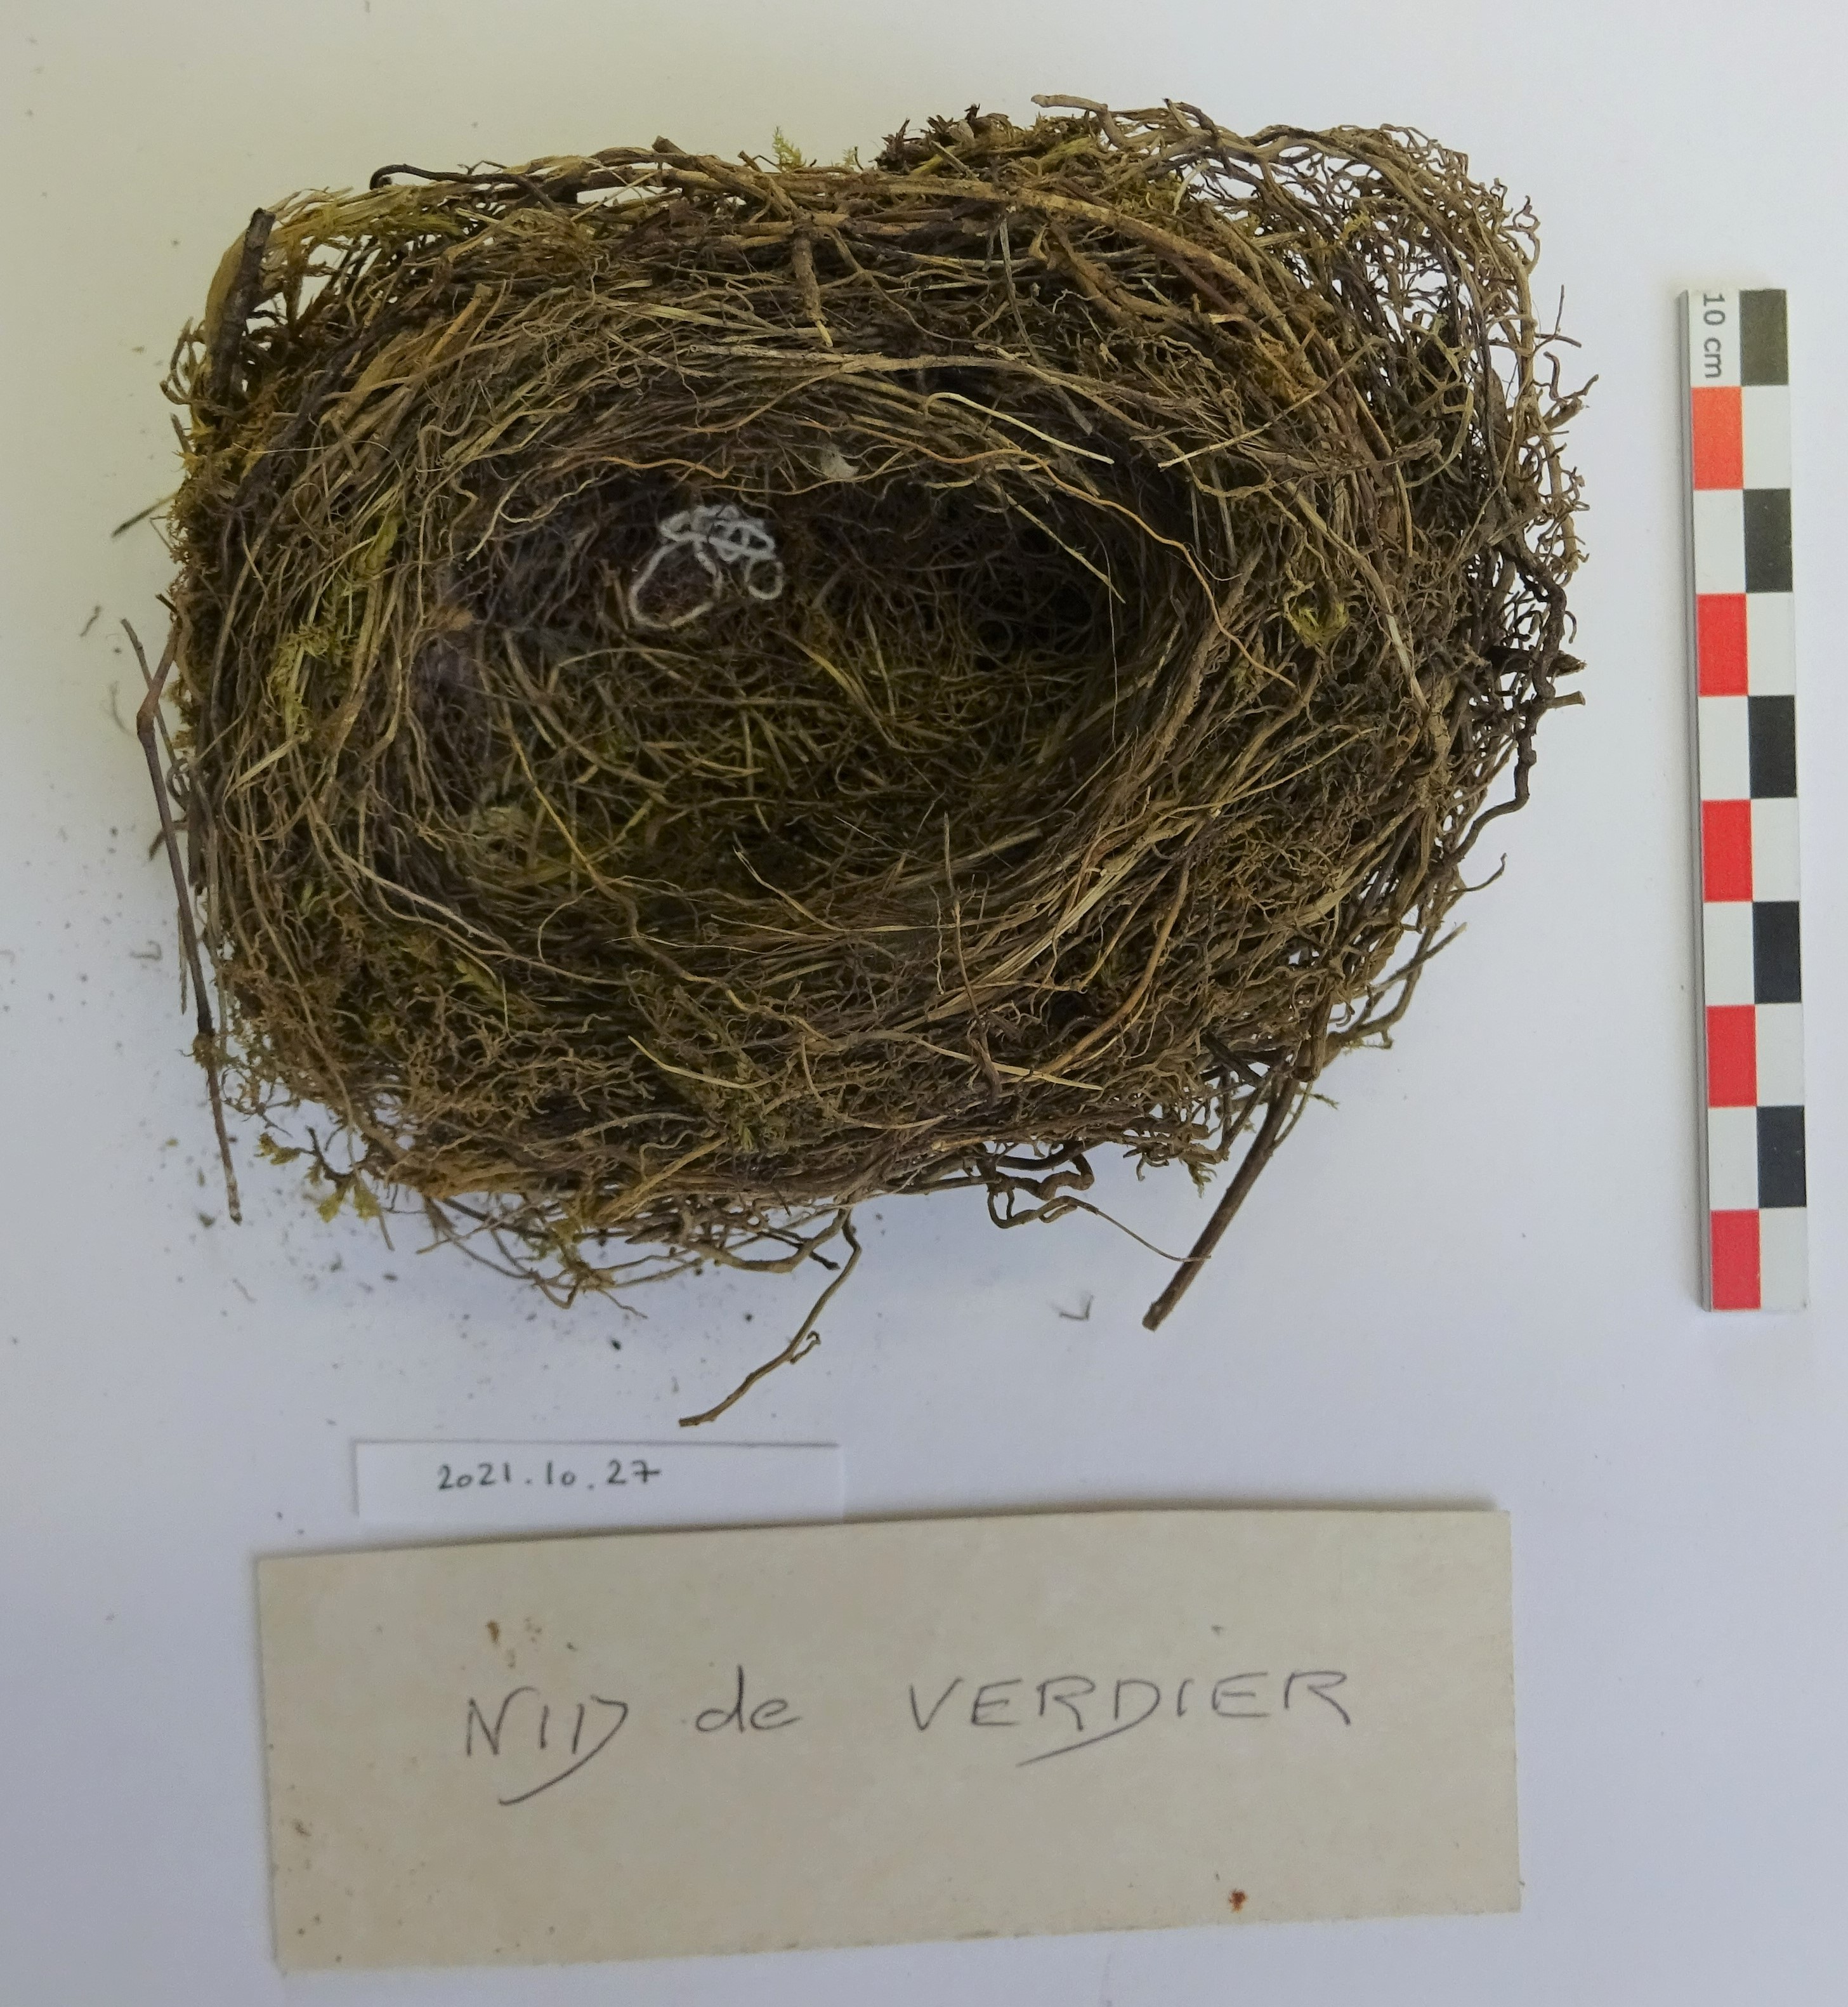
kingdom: Plantae
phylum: Tracheophyta
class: Liliopsida
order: Poales
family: Poaceae
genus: Chloris
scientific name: Chloris chloris
